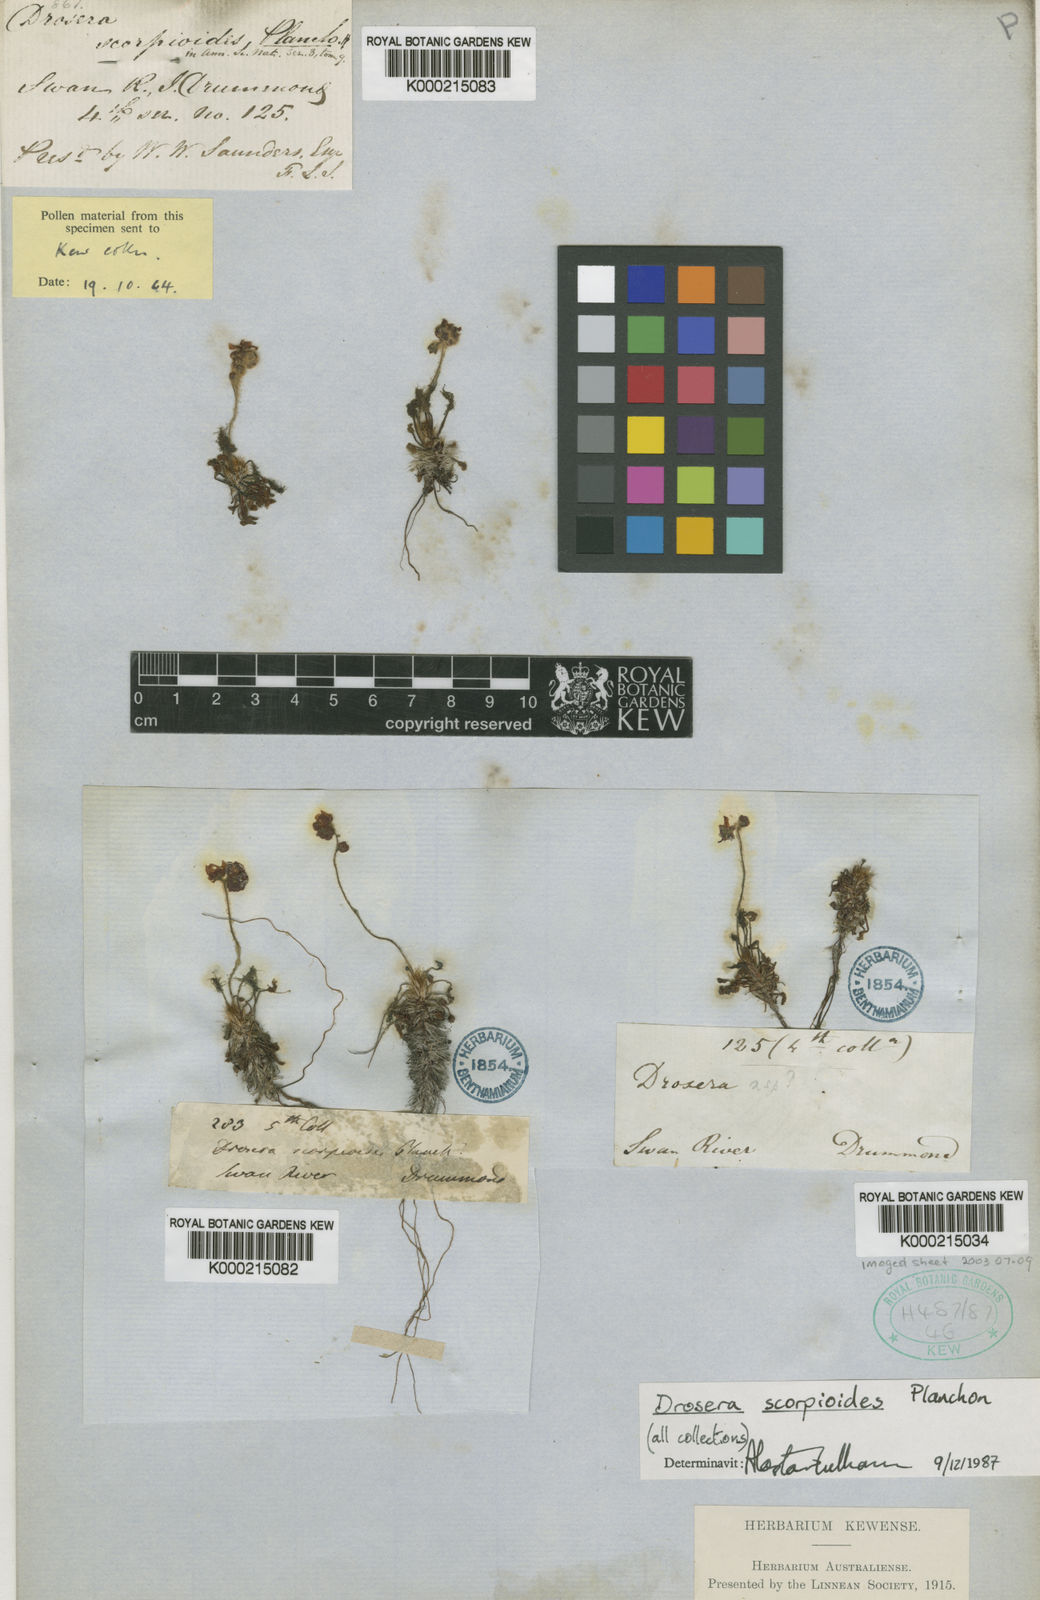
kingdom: Plantae
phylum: Tracheophyta
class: Magnoliopsida
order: Caryophyllales
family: Droseraceae
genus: Drosera
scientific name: Drosera scorpioides
